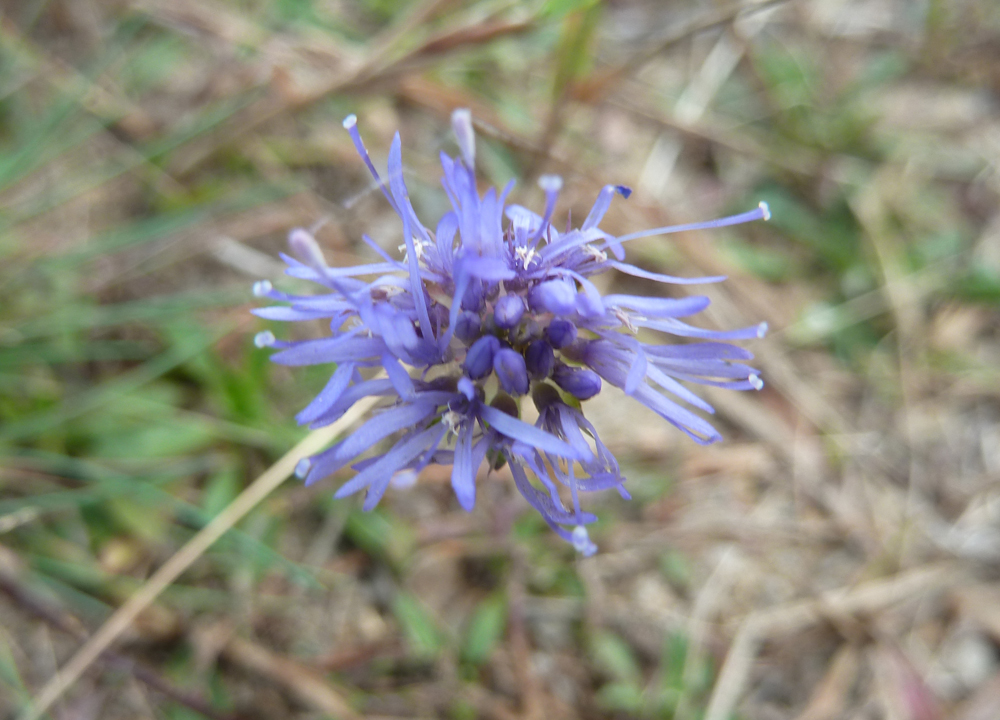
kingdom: Plantae
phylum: Tracheophyta
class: Magnoliopsida
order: Asterales
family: Campanulaceae
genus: Jasione
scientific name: Jasione montana
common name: Sheep's-bit
